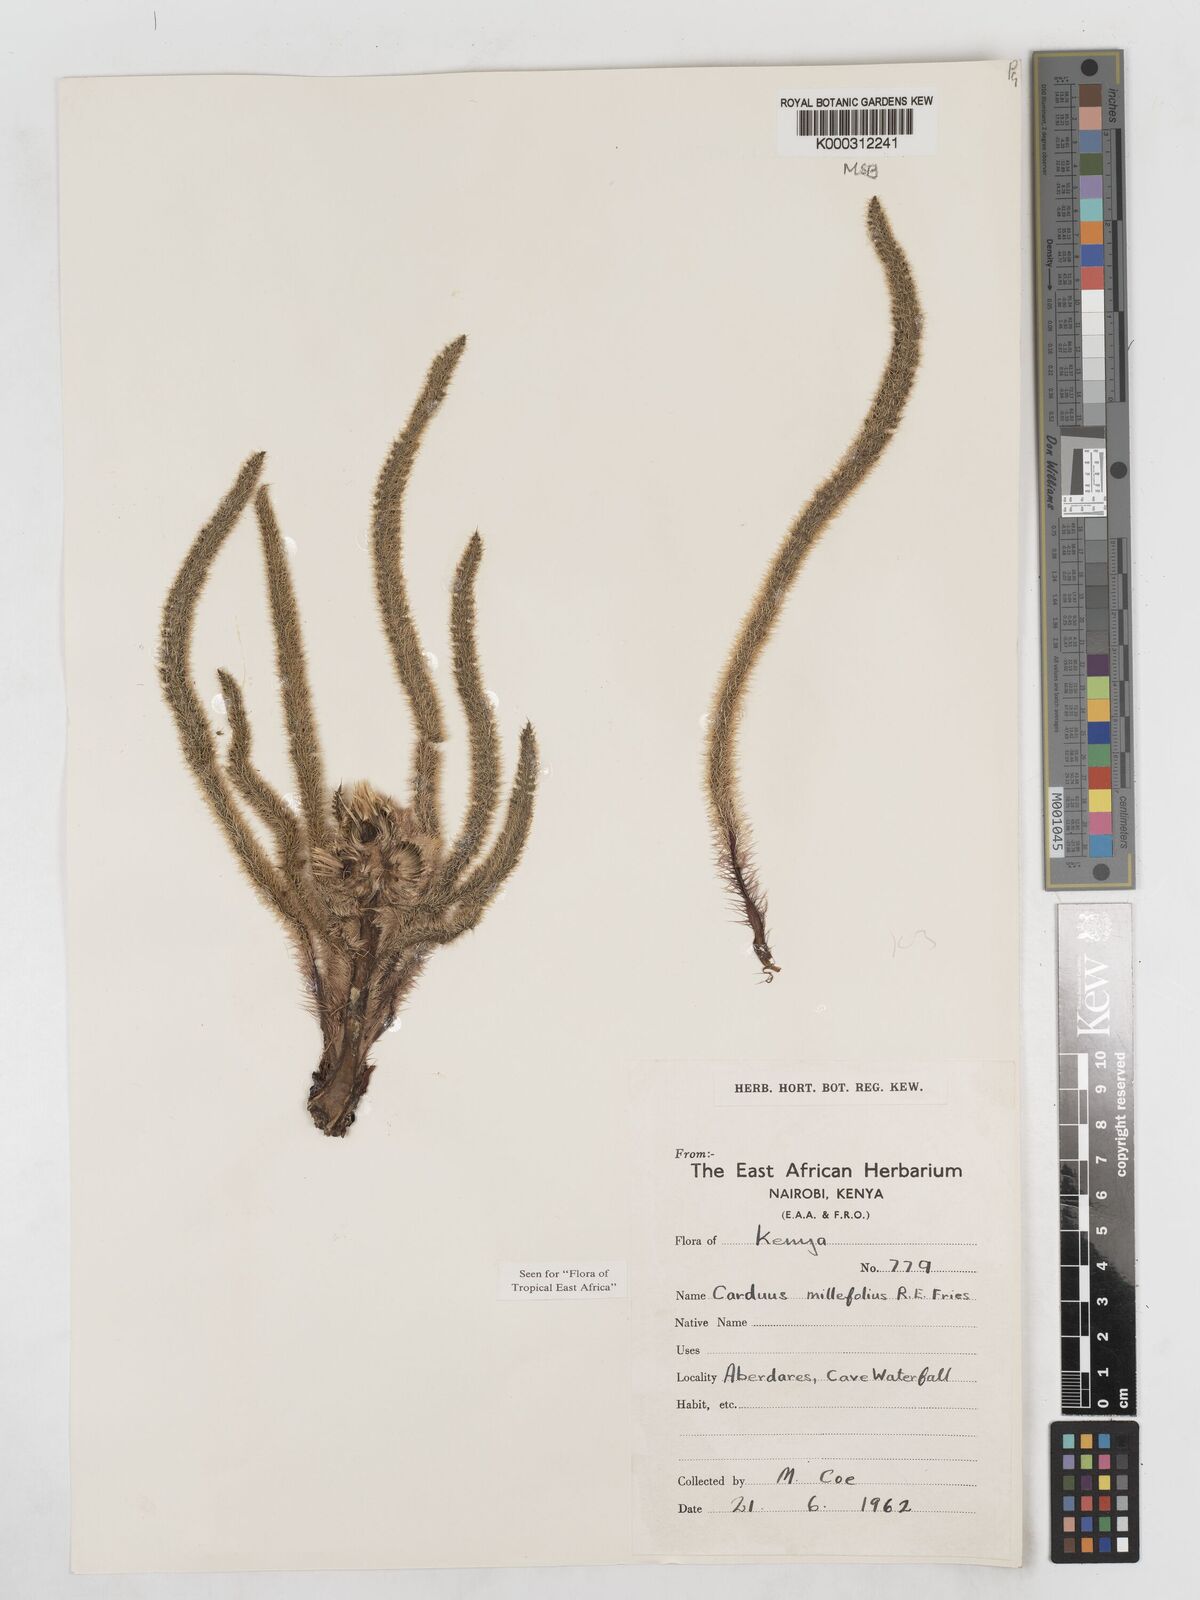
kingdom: Plantae
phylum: Tracheophyta
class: Magnoliopsida
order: Asterales
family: Asteraceae
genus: Carduus
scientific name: Carduus millefolius
